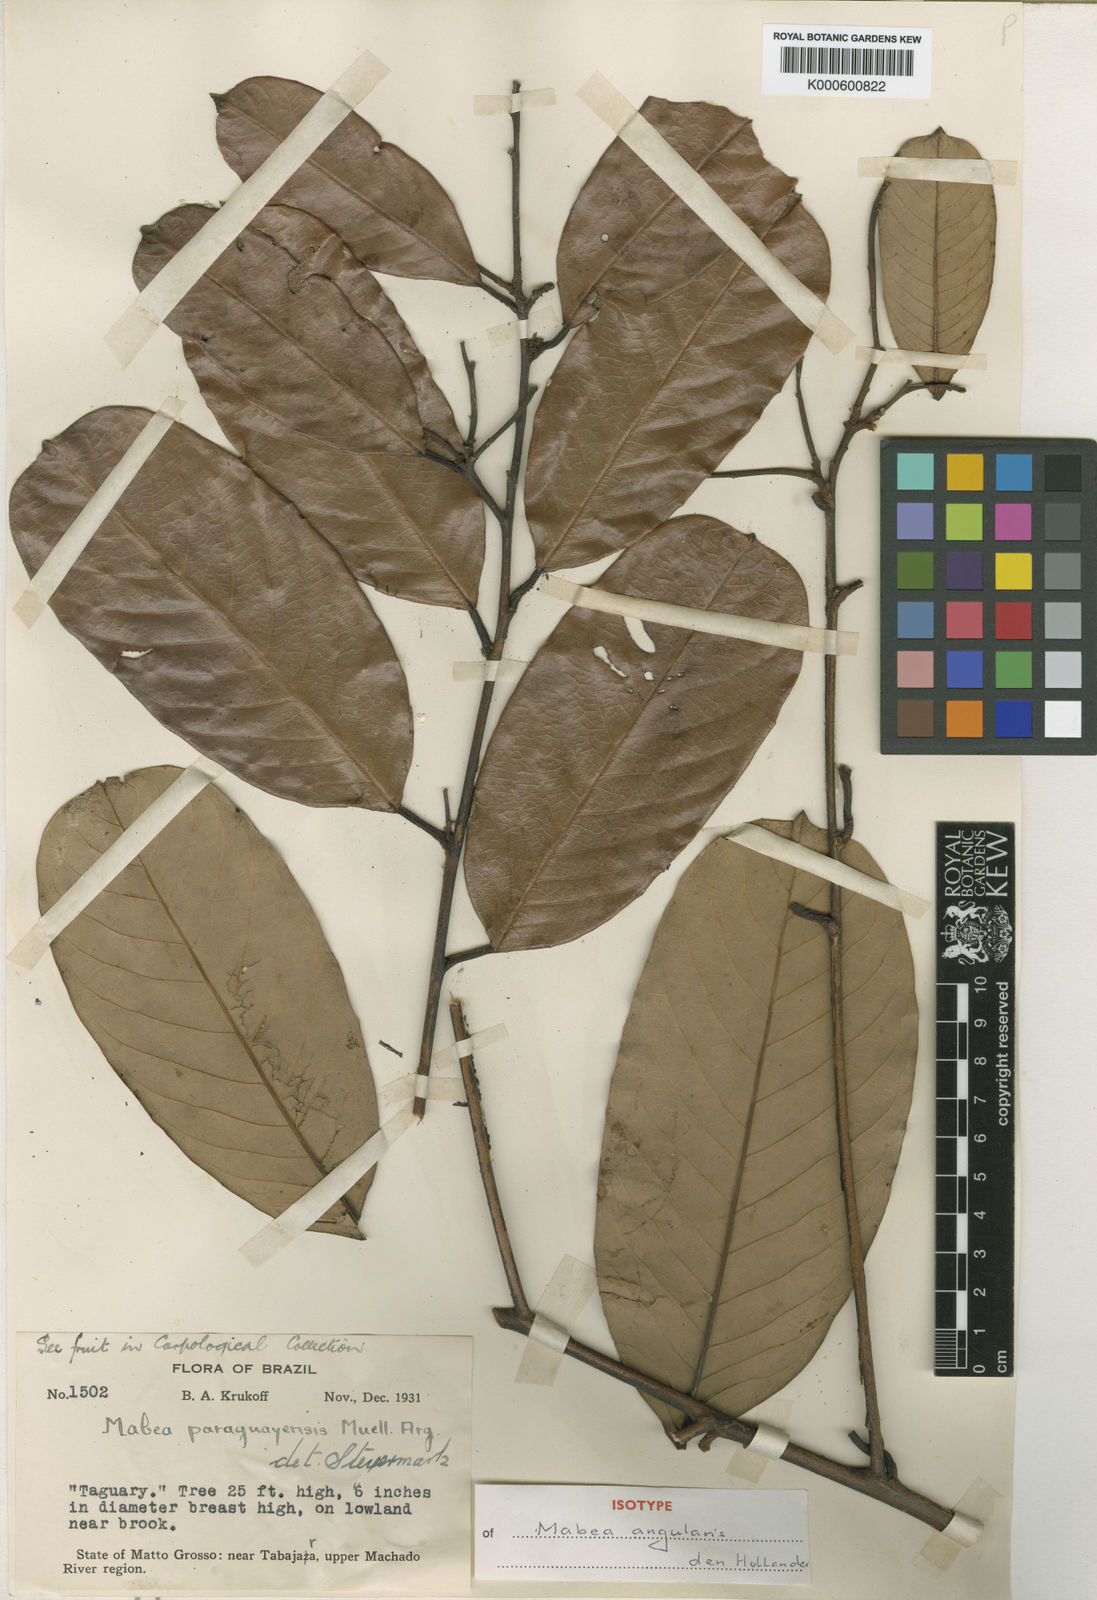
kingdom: Plantae
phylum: Tracheophyta
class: Magnoliopsida
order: Malpighiales
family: Euphorbiaceae
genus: Mabea
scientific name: Mabea
